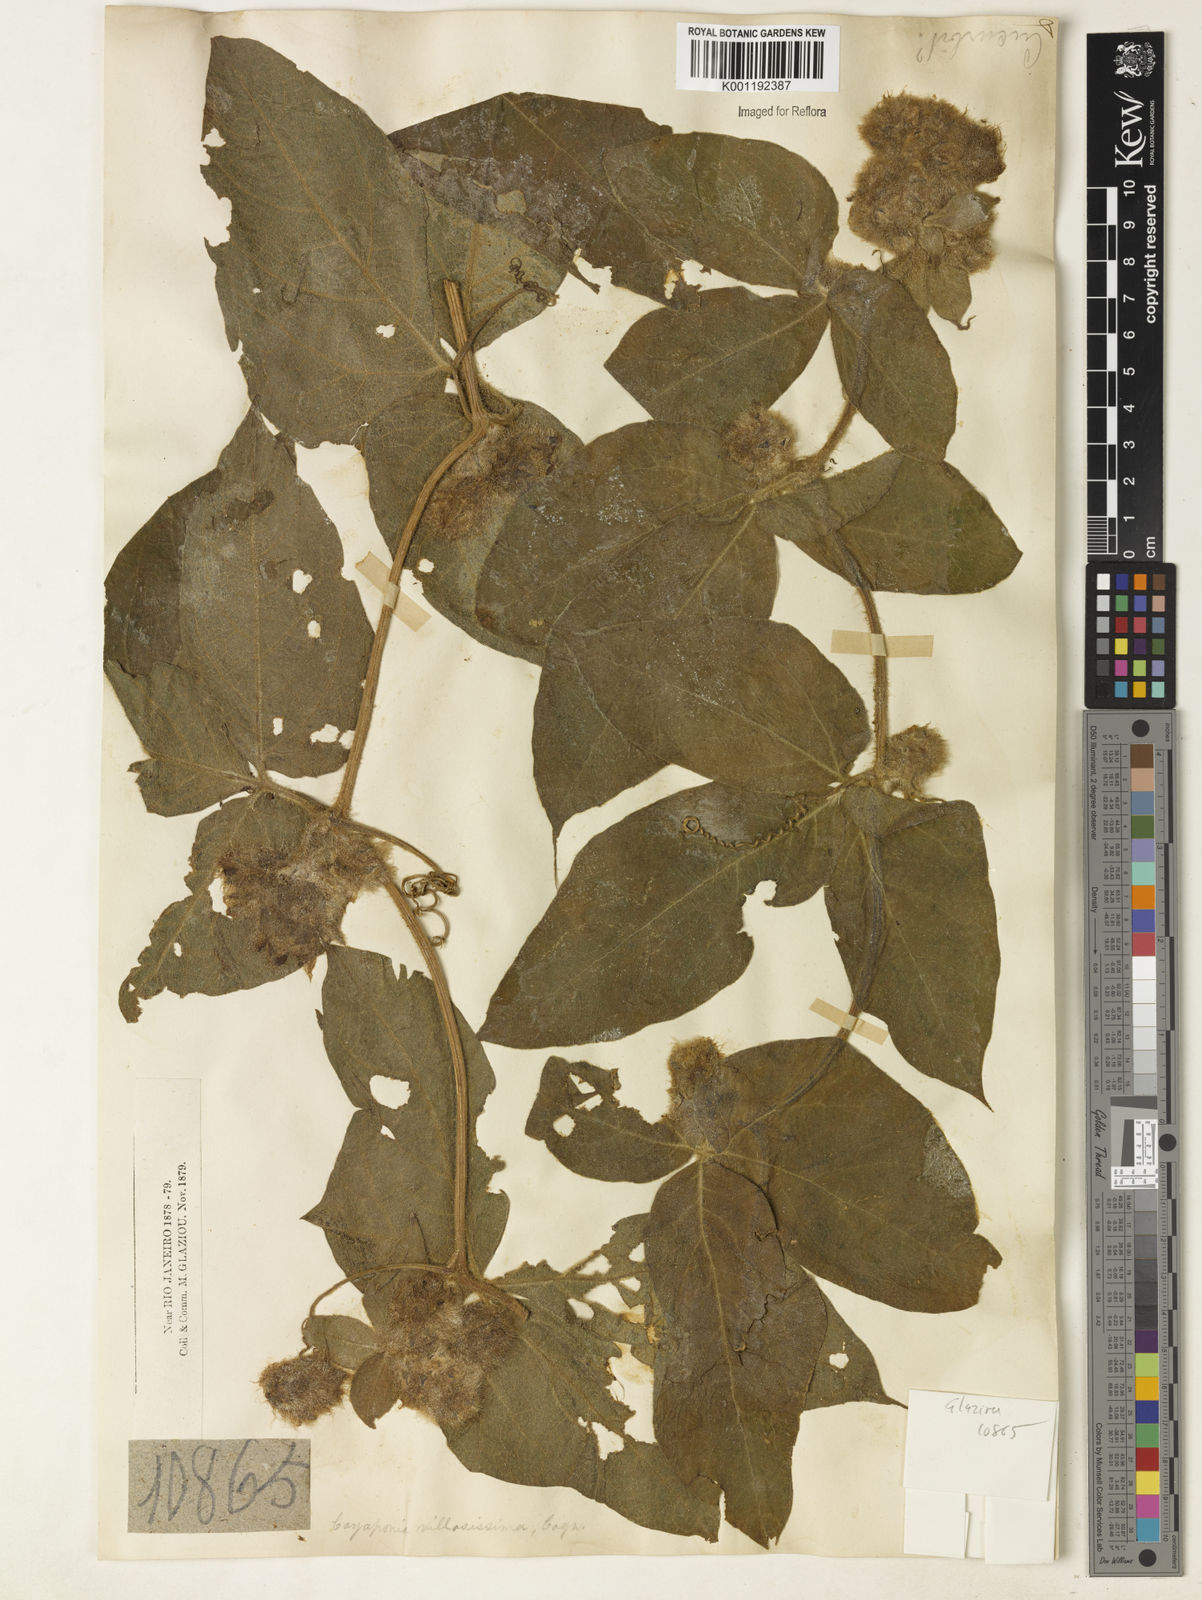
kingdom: Plantae
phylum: Tracheophyta
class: Magnoliopsida
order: Cucurbitales
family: Cucurbitaceae
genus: Cayaponia
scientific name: Cayaponia villosissima
